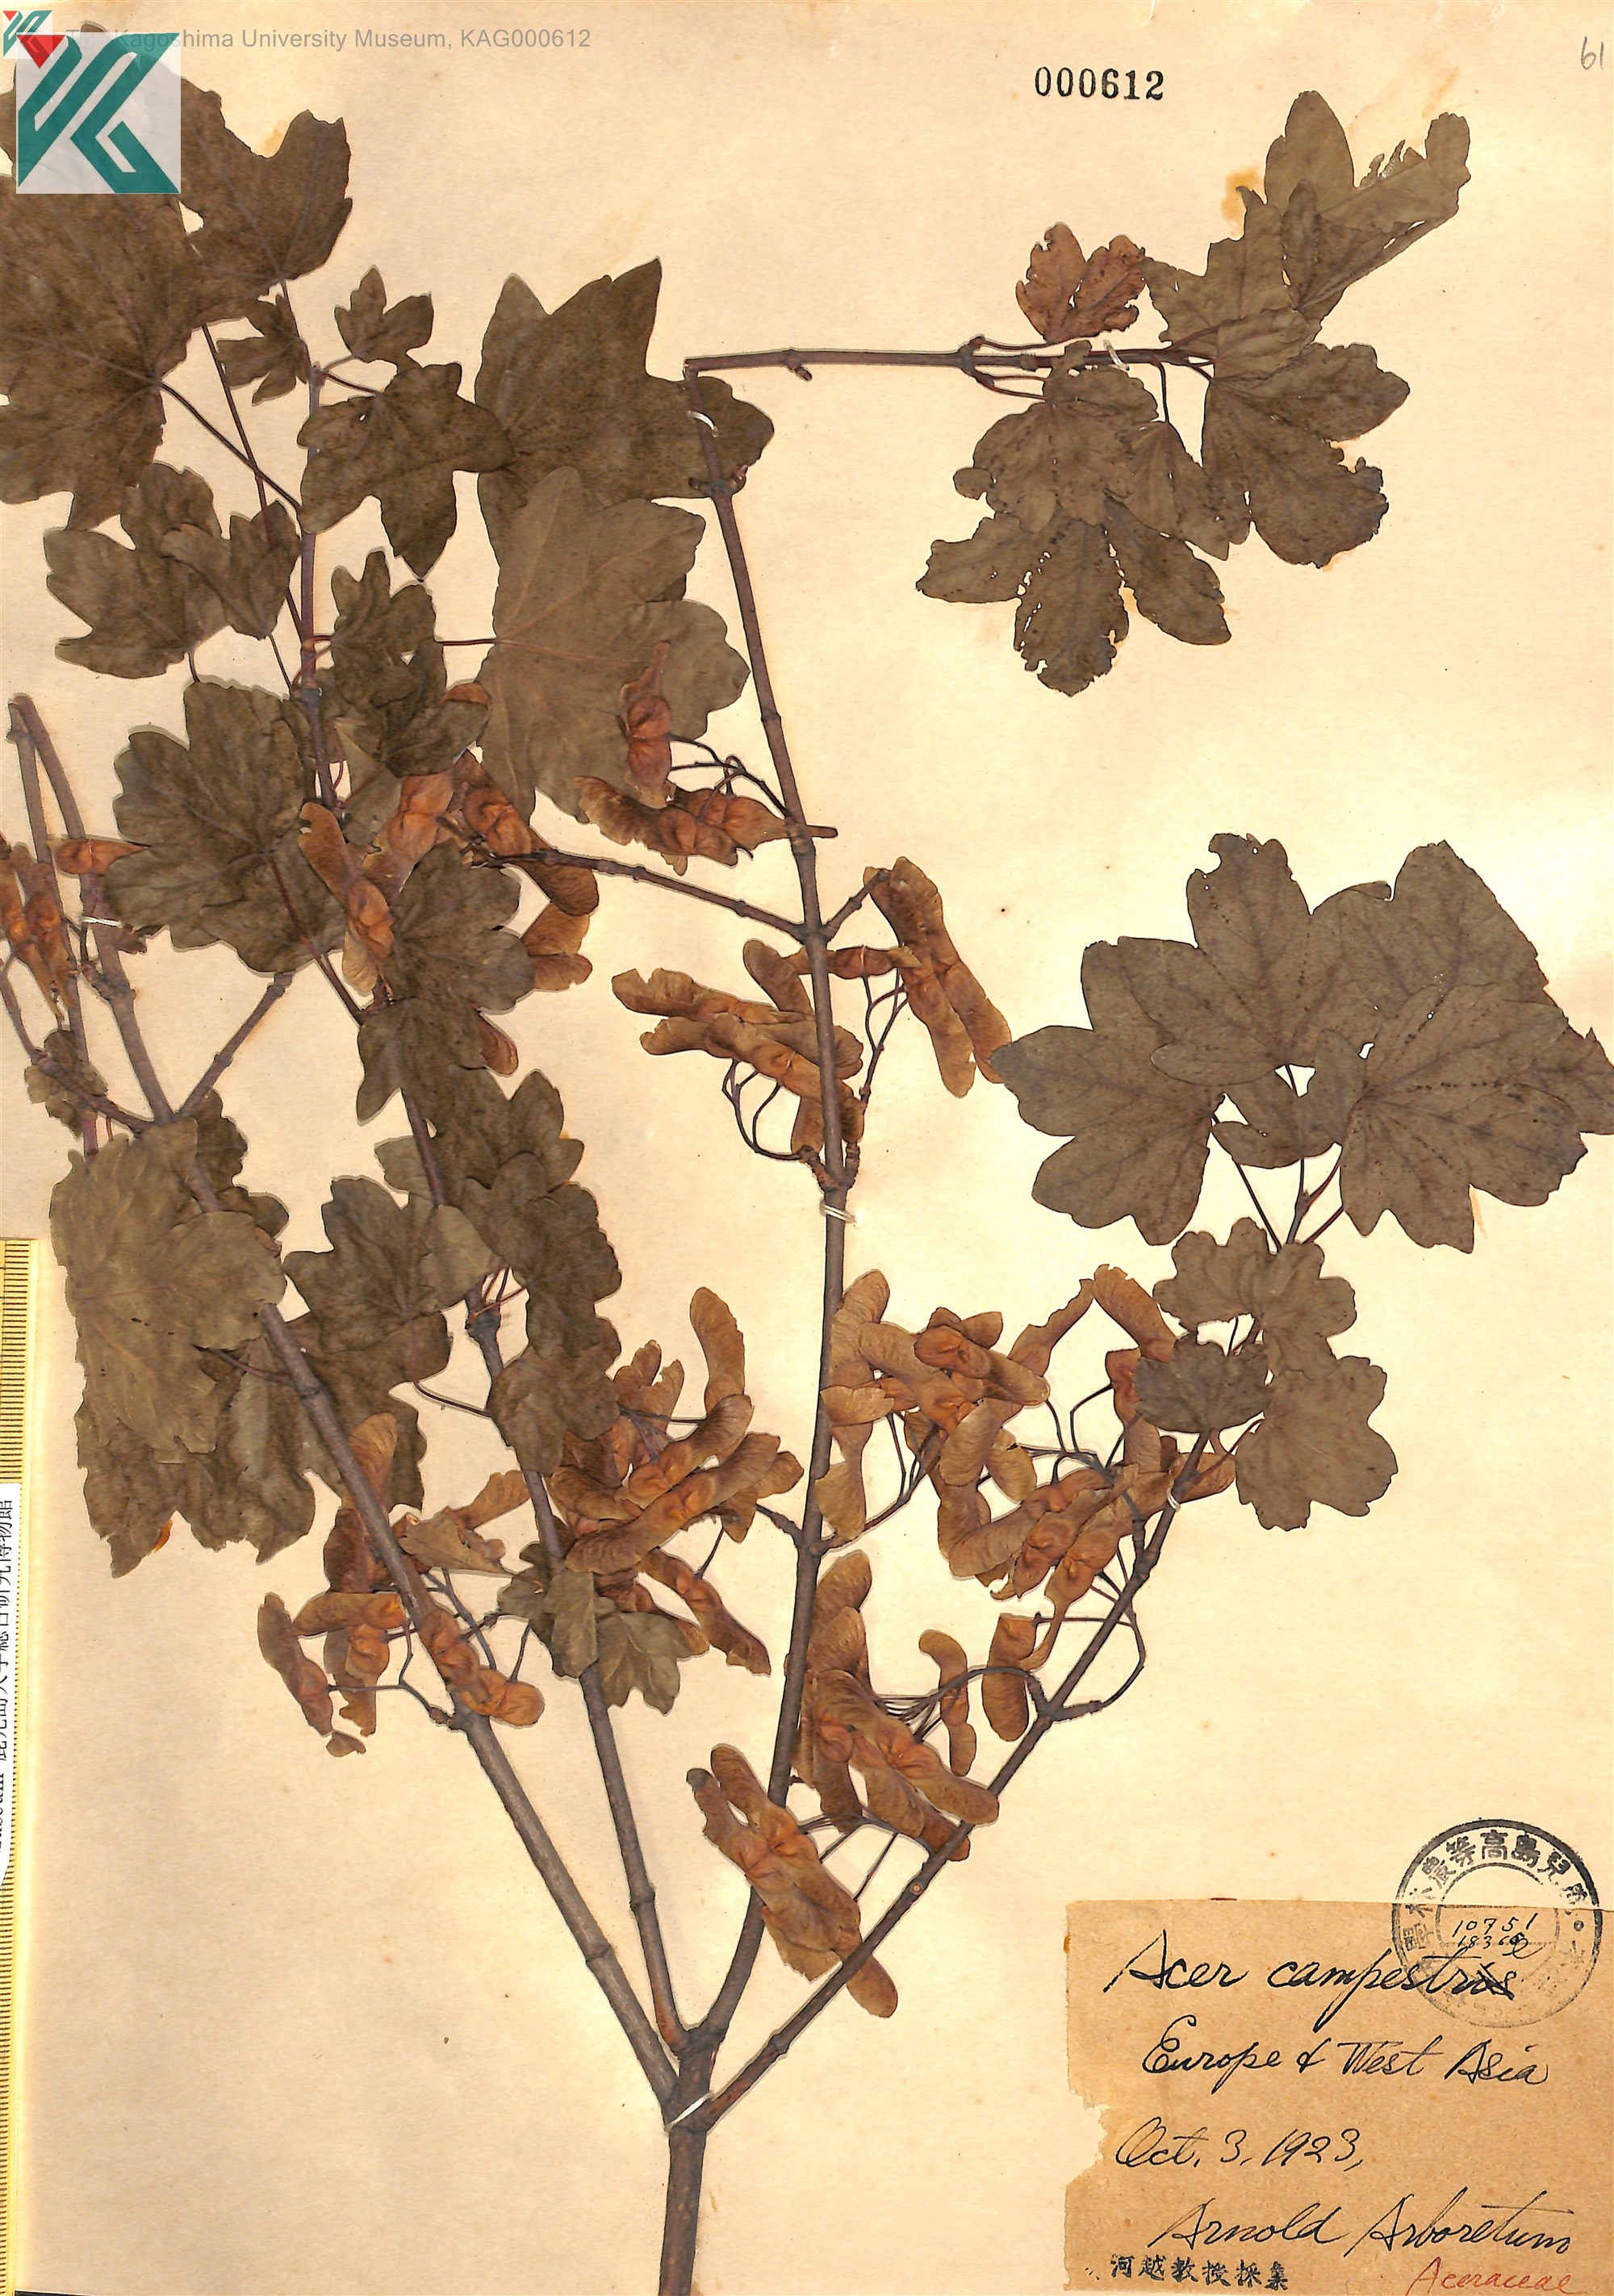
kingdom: Plantae
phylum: Tracheophyta
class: Magnoliopsida
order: Sapindales
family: Sapindaceae
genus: Acer
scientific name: Acer campestre
